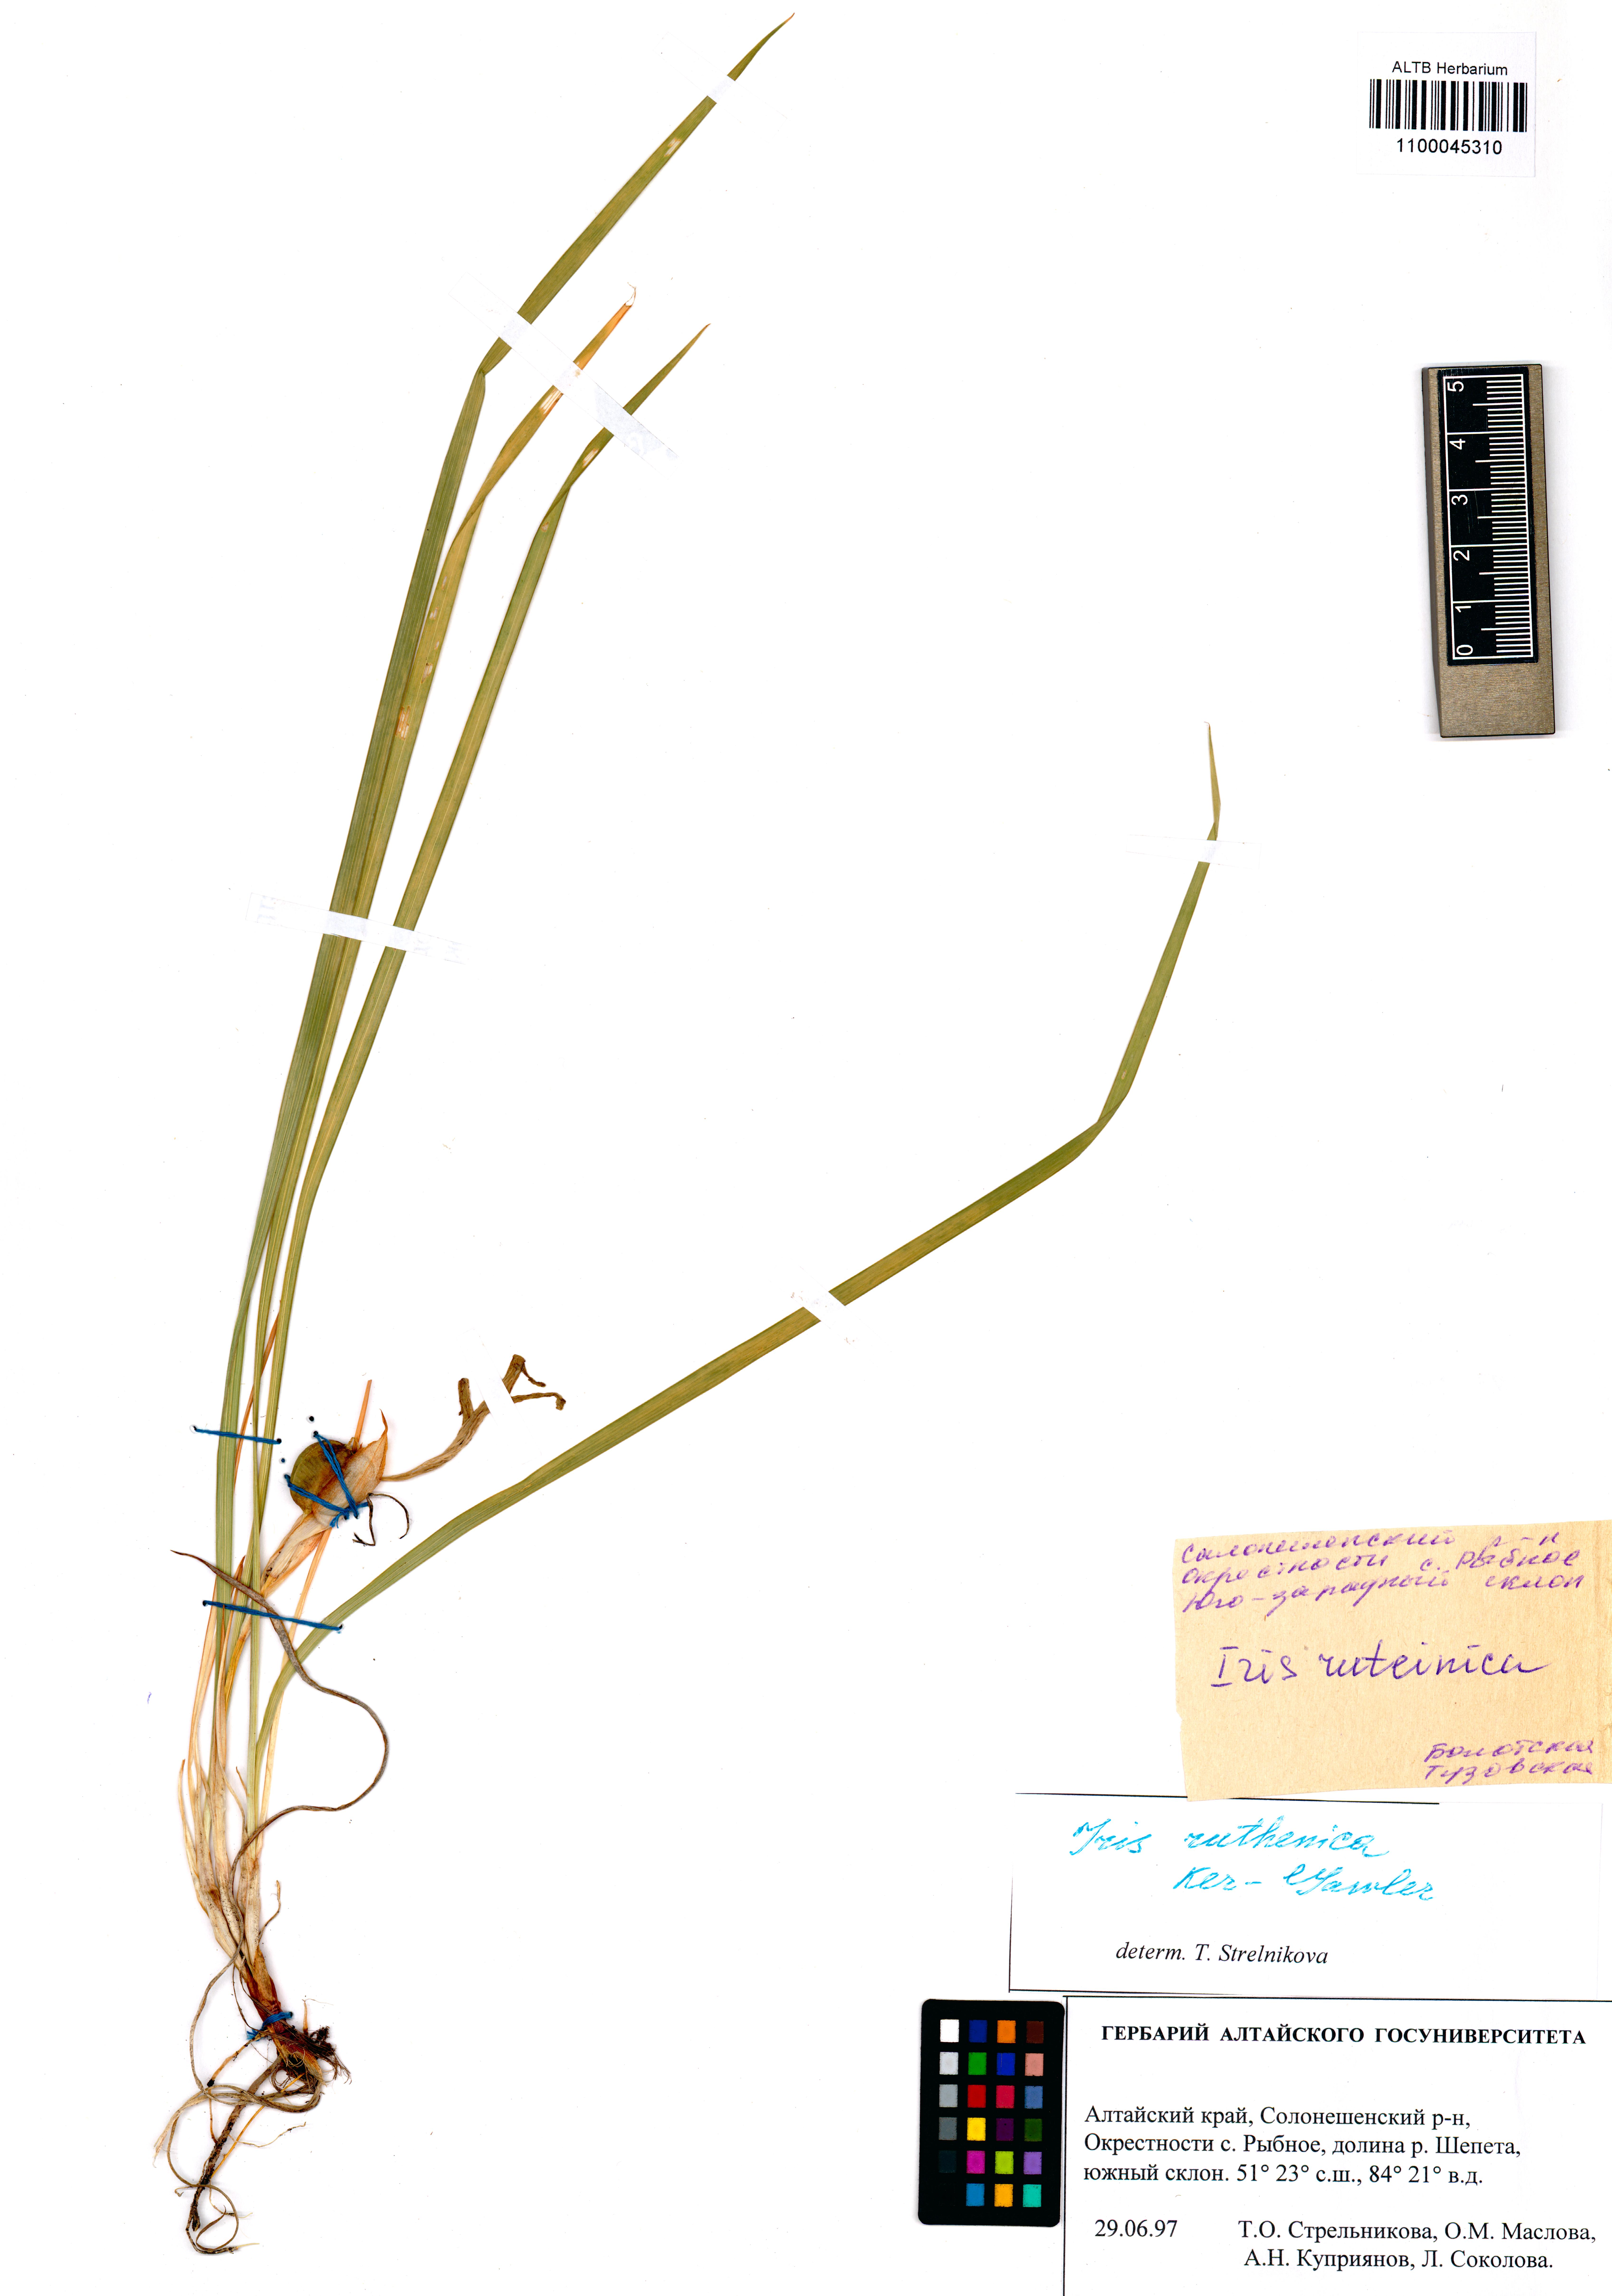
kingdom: Plantae
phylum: Tracheophyta
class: Liliopsida
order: Asparagales
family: Iridaceae
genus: Iris
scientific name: Iris ruthenica
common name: Purple-bract iris
